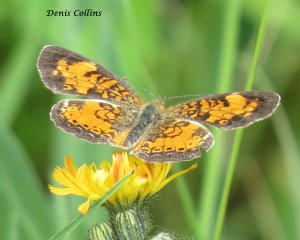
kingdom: Animalia
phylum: Arthropoda
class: Insecta
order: Lepidoptera
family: Nymphalidae
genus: Phyciodes
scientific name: Phyciodes tharos
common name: Northern Crescent
